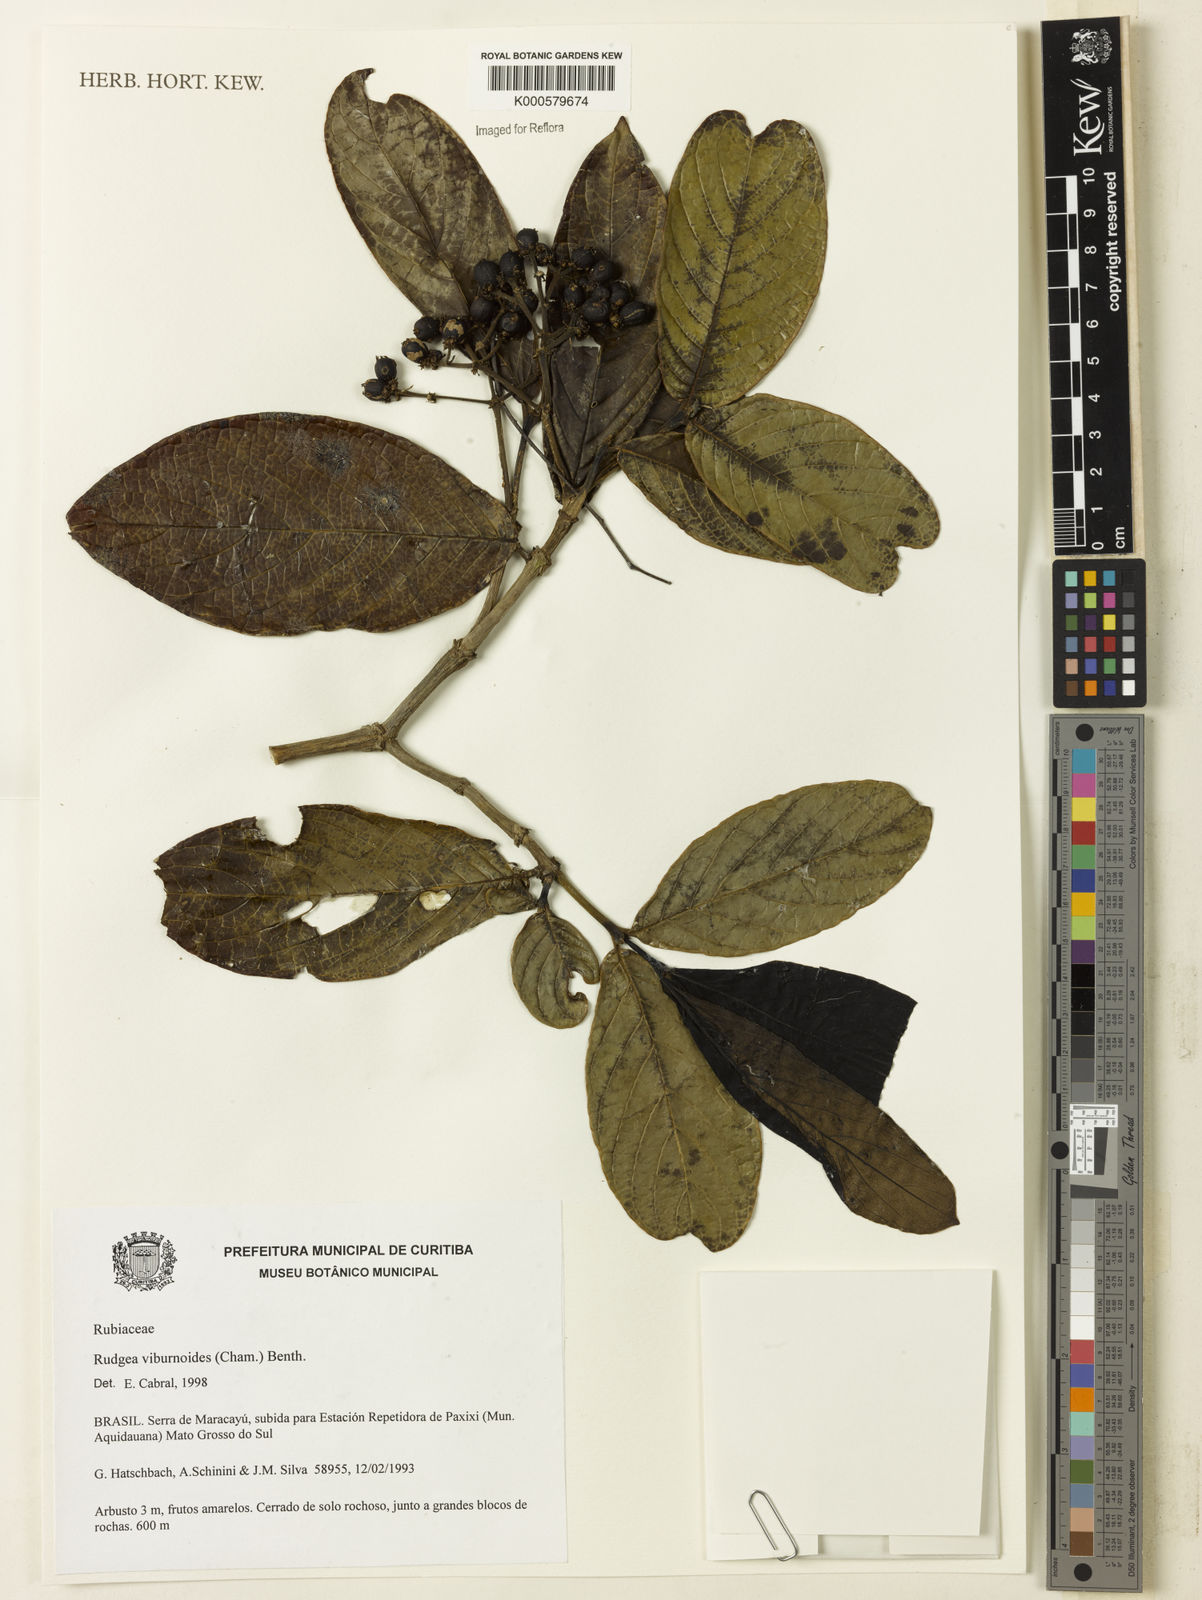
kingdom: Plantae
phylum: Tracheophyta
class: Magnoliopsida
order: Gentianales
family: Rubiaceae
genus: Rudgea
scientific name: Rudgea viburnoides
